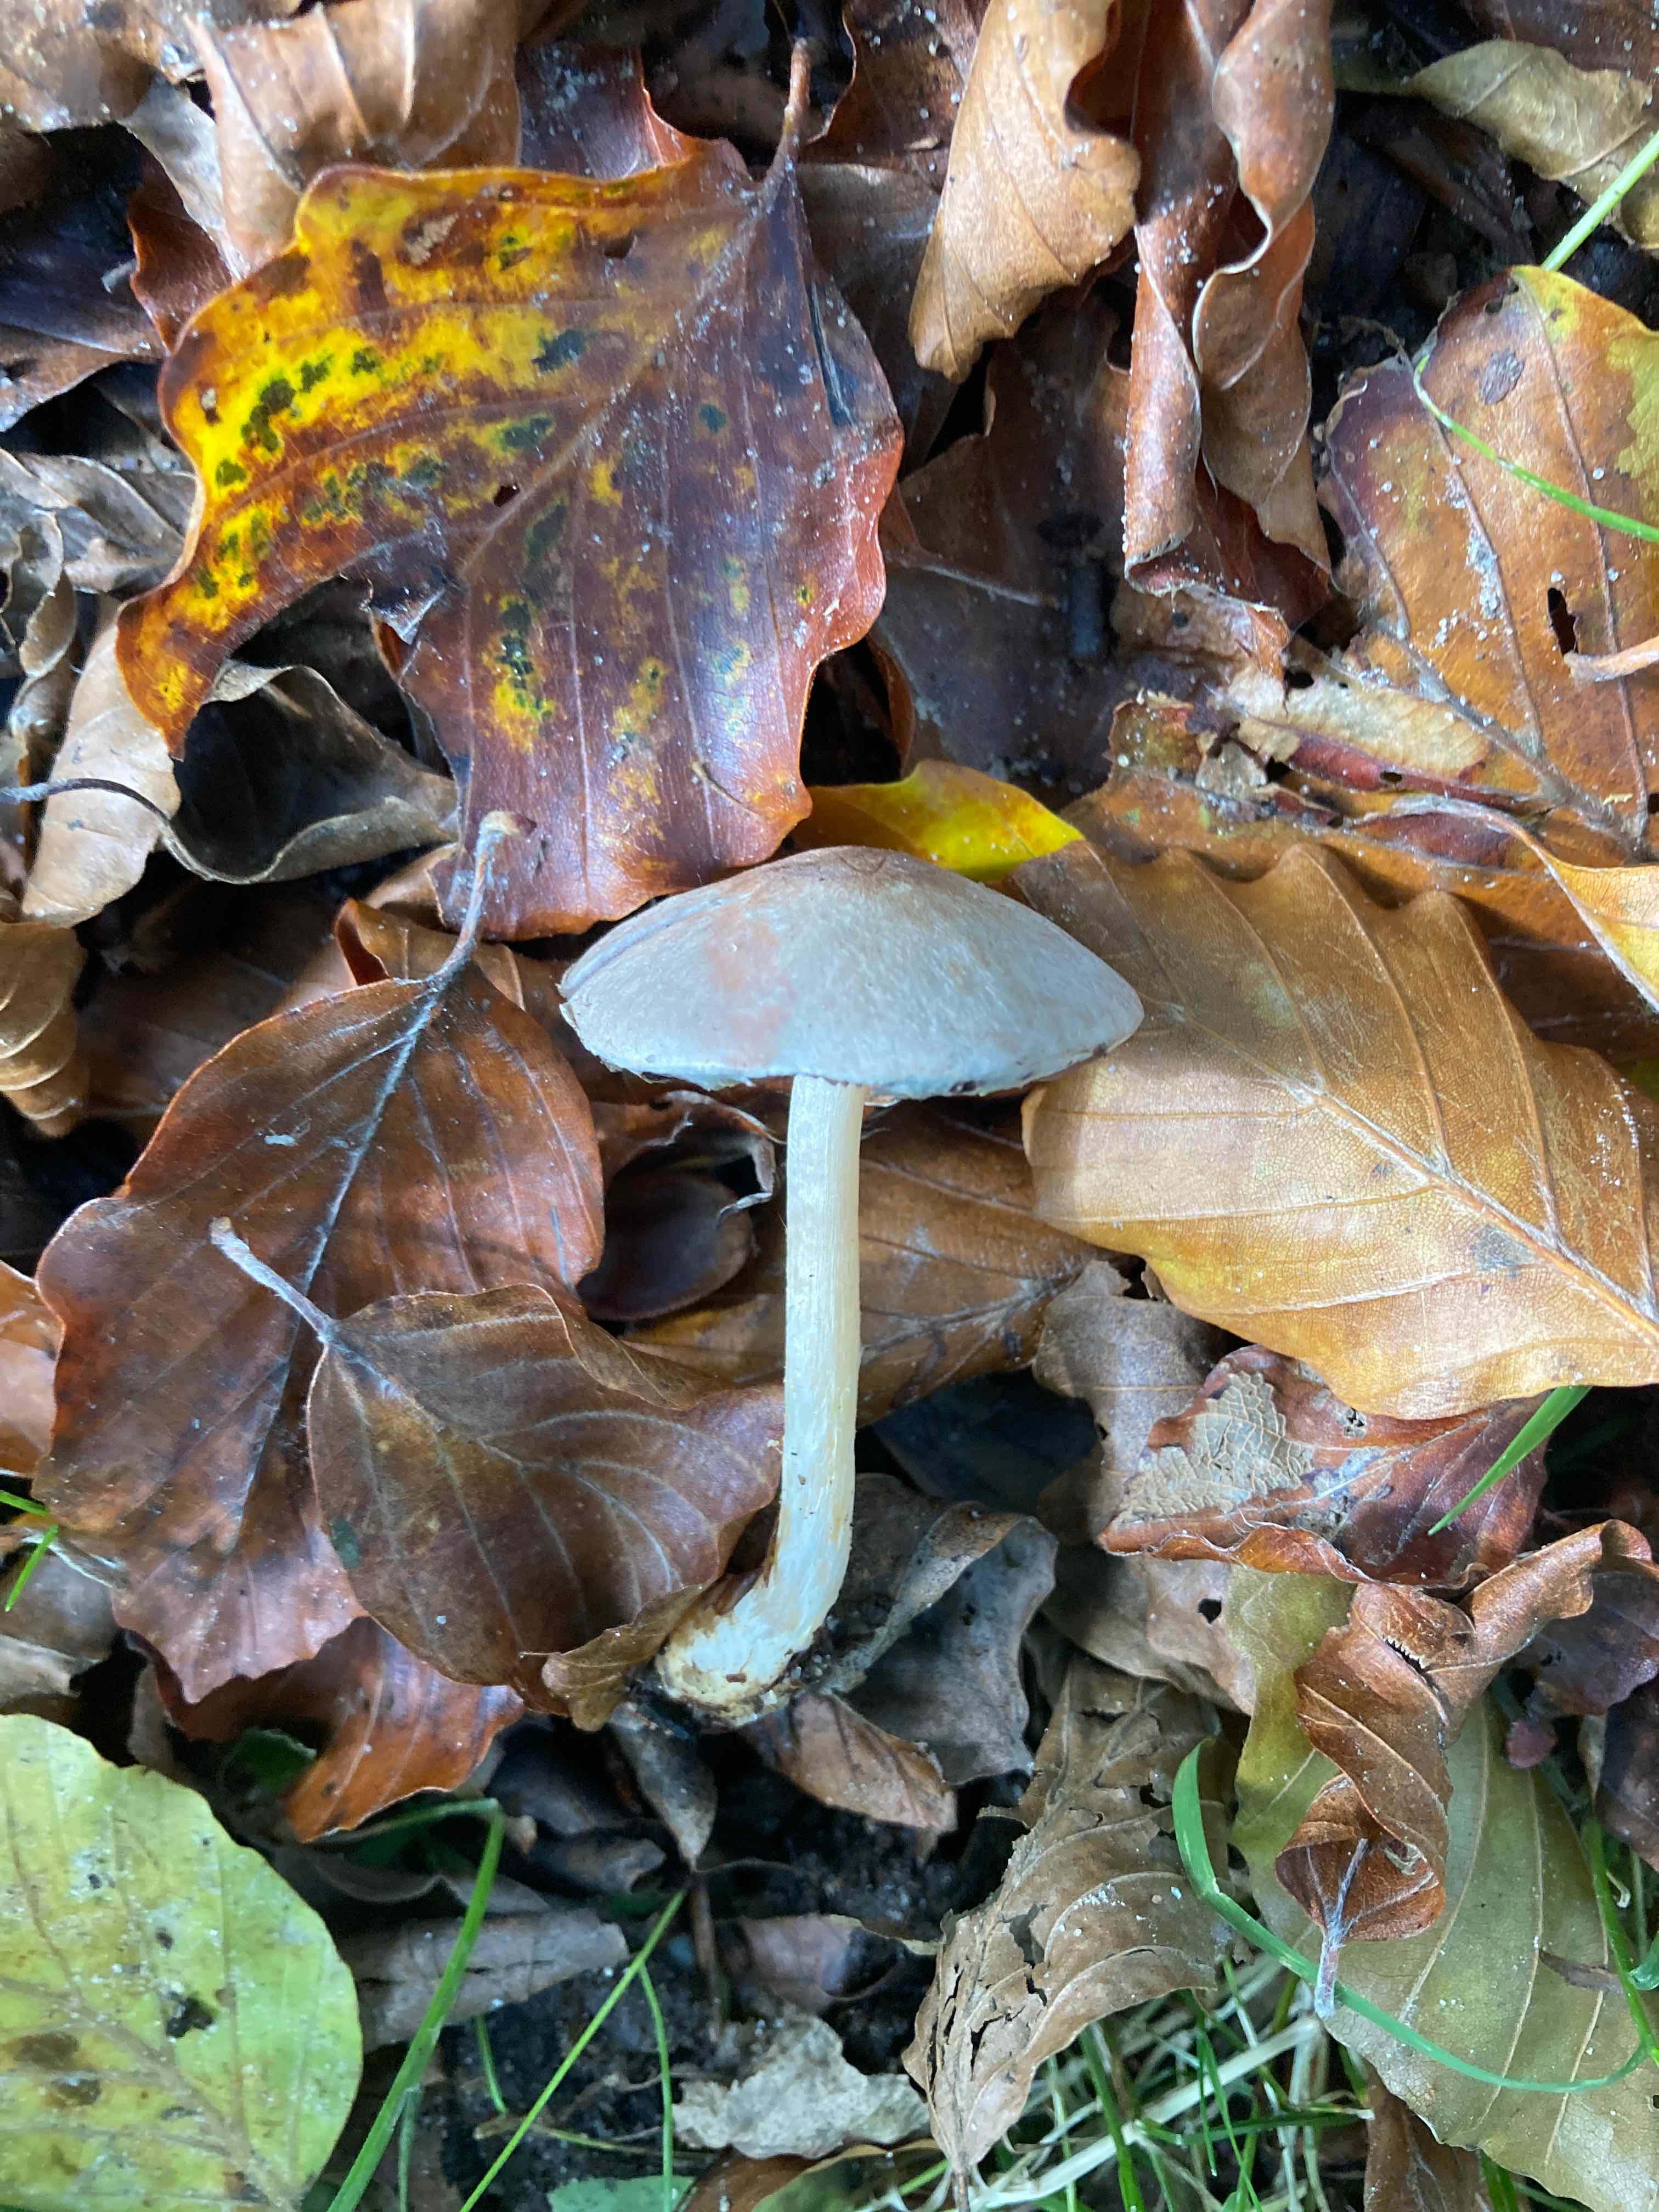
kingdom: Fungi
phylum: Basidiomycota
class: Agaricomycetes
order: Agaricales
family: Agaricaceae
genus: Agaricus
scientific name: Agaricus dulcidulus
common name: blegrød champignon
